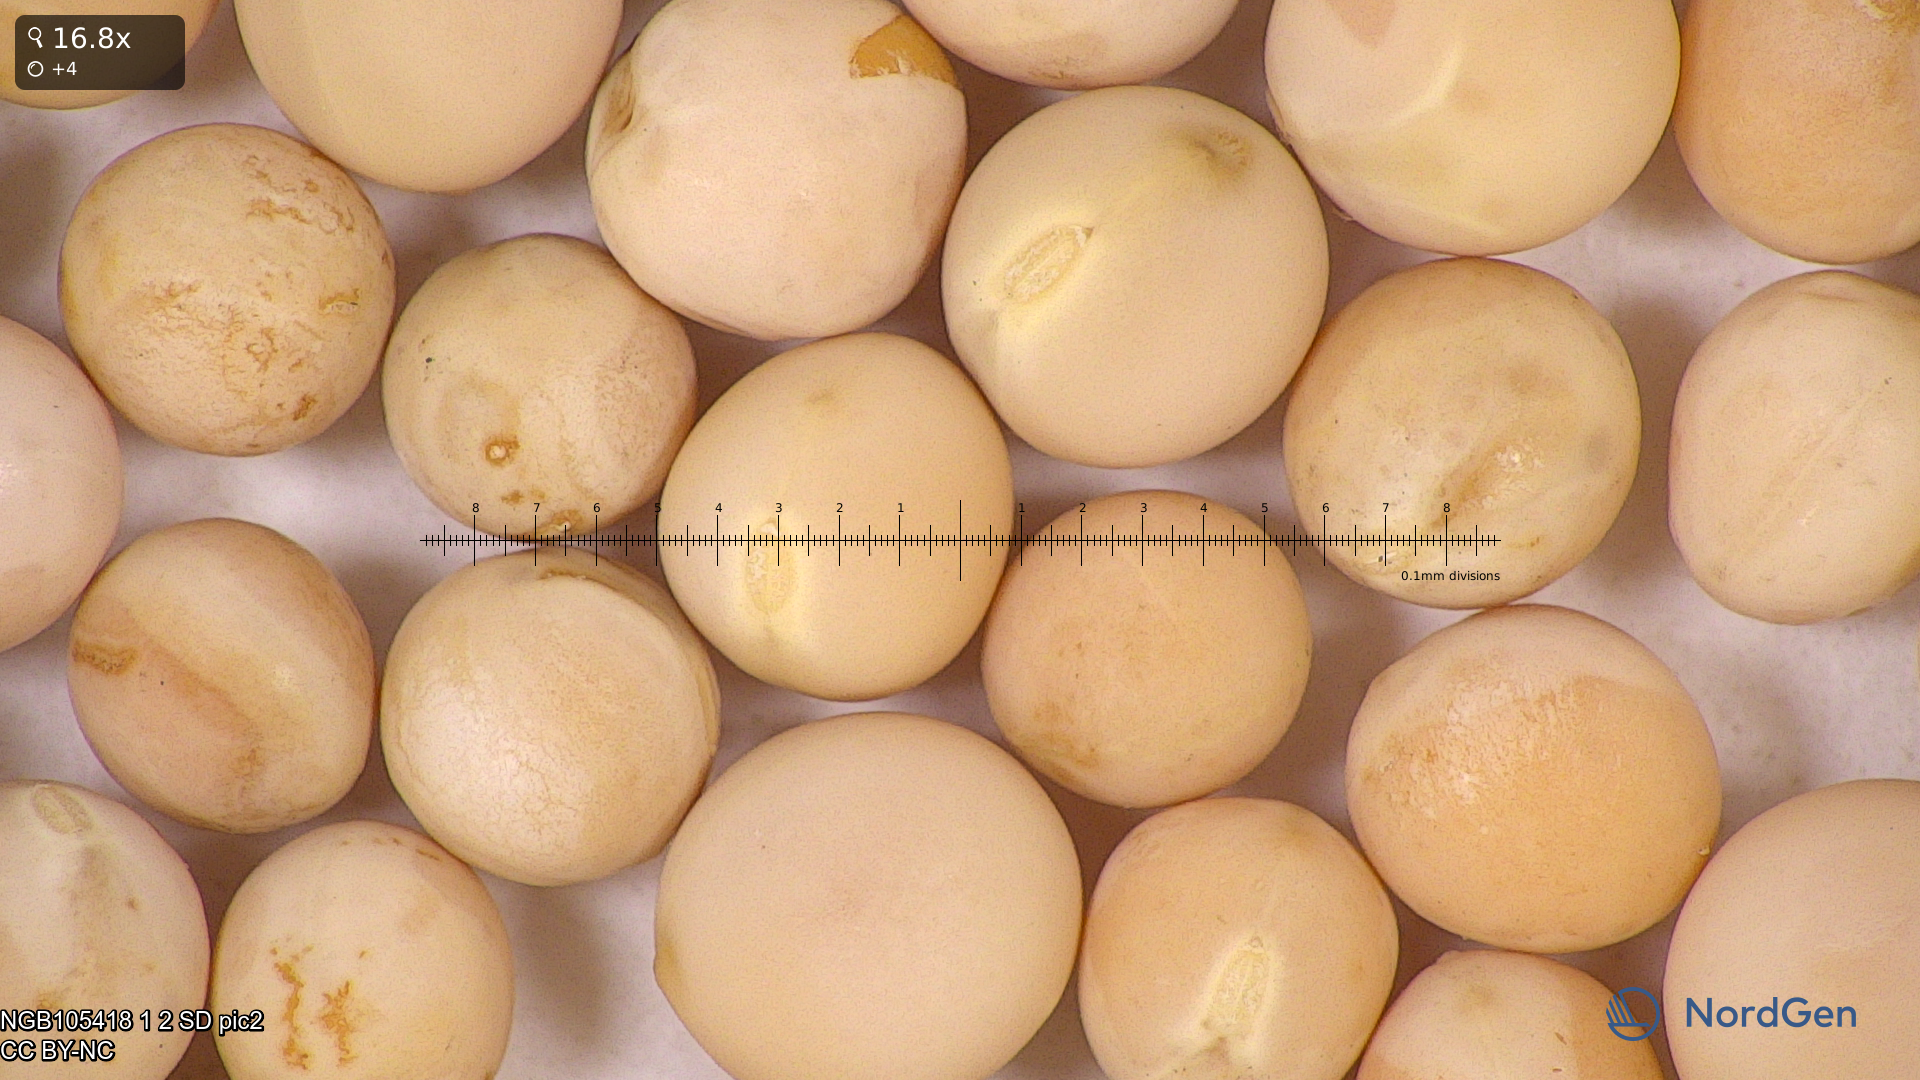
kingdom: Plantae
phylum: Tracheophyta
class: Magnoliopsida
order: Fabales
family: Fabaceae
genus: Lathyrus
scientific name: Lathyrus oleraceus
